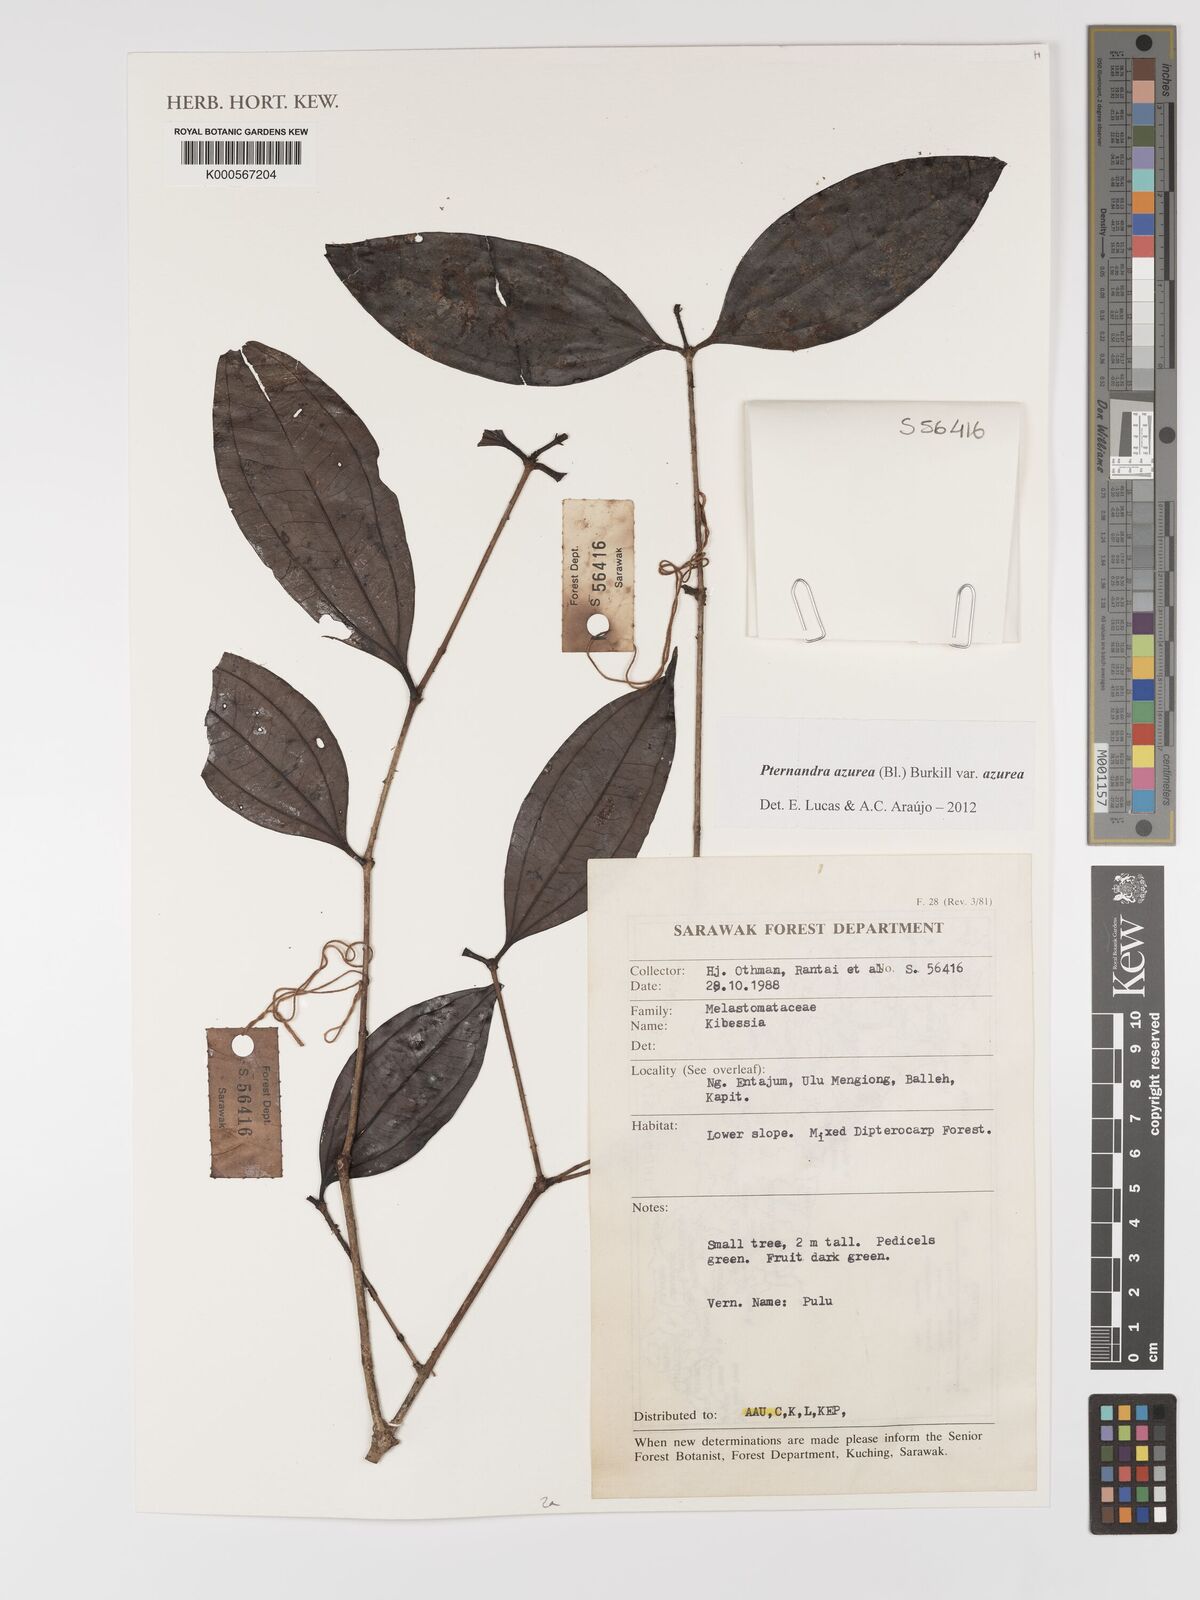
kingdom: Plantae
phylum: Tracheophyta
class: Magnoliopsida
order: Myrtales
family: Melastomataceae
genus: Pternandra
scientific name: Pternandra azurea
